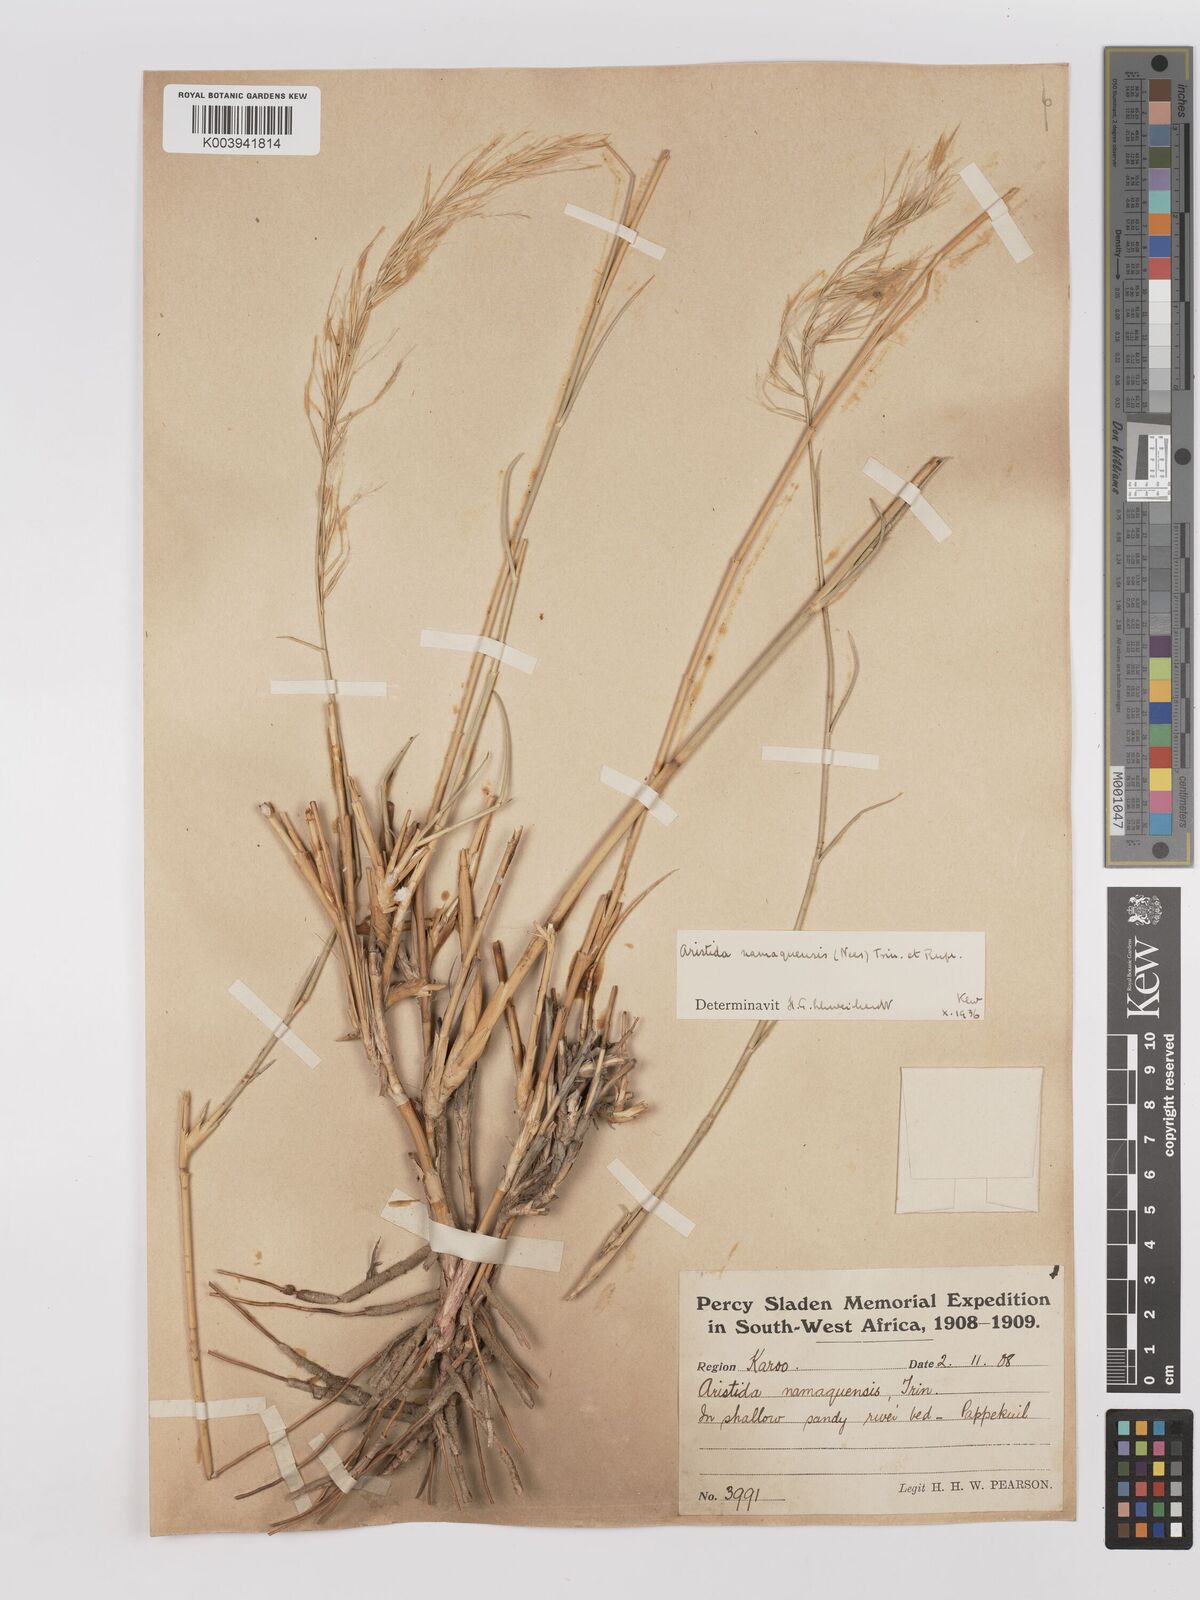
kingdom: Plantae
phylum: Tracheophyta
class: Liliopsida
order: Poales
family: Poaceae
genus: Stipagrostis
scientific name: Stipagrostis namaquensis
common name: River bushman grass
